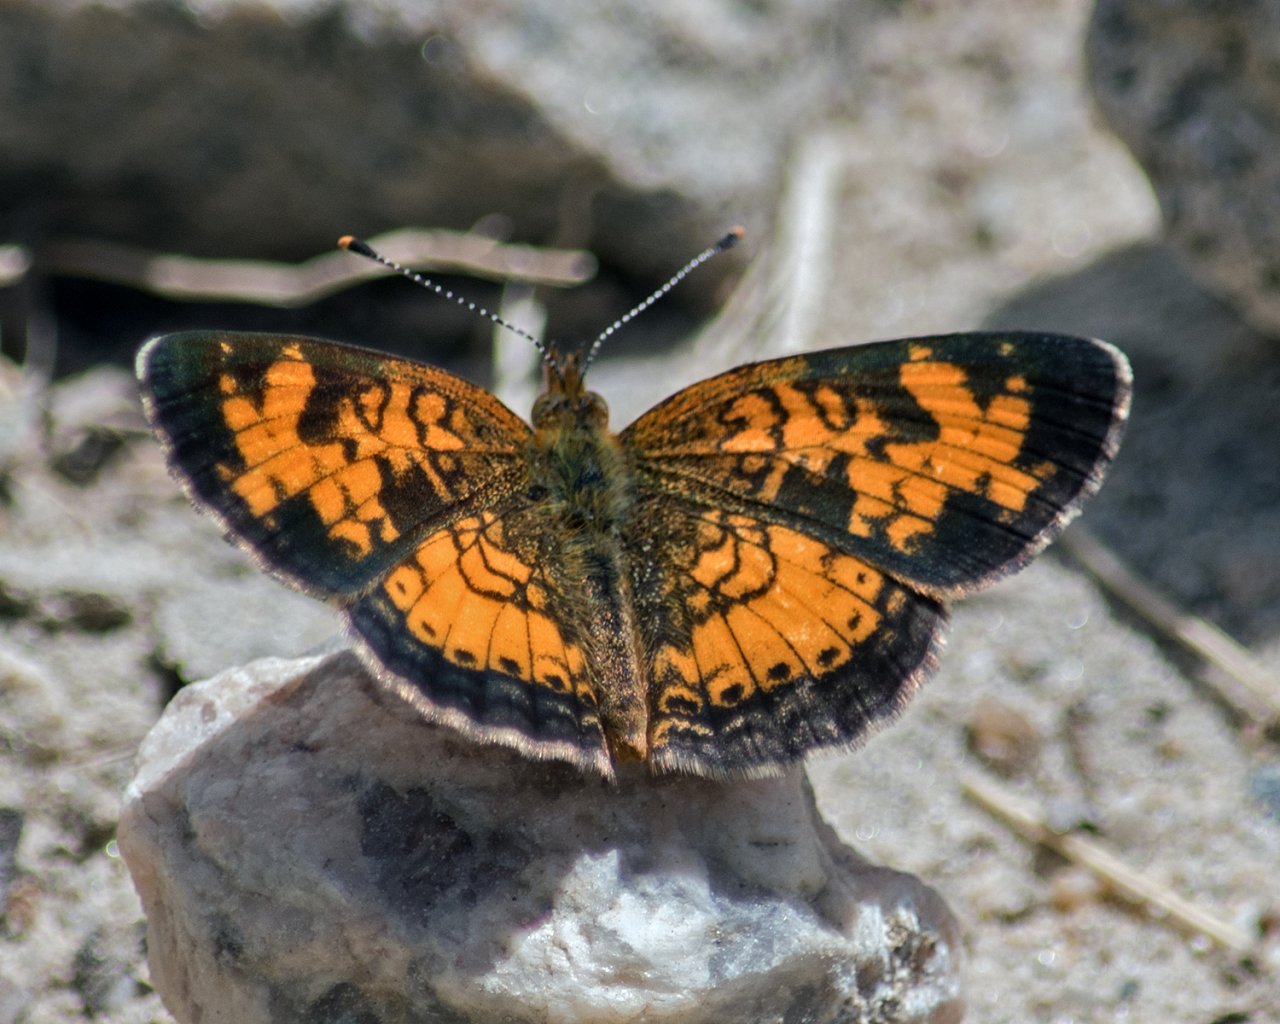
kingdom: Animalia
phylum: Arthropoda
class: Insecta
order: Lepidoptera
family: Nymphalidae
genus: Phyciodes
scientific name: Phyciodes tharos
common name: Northern Crescent
